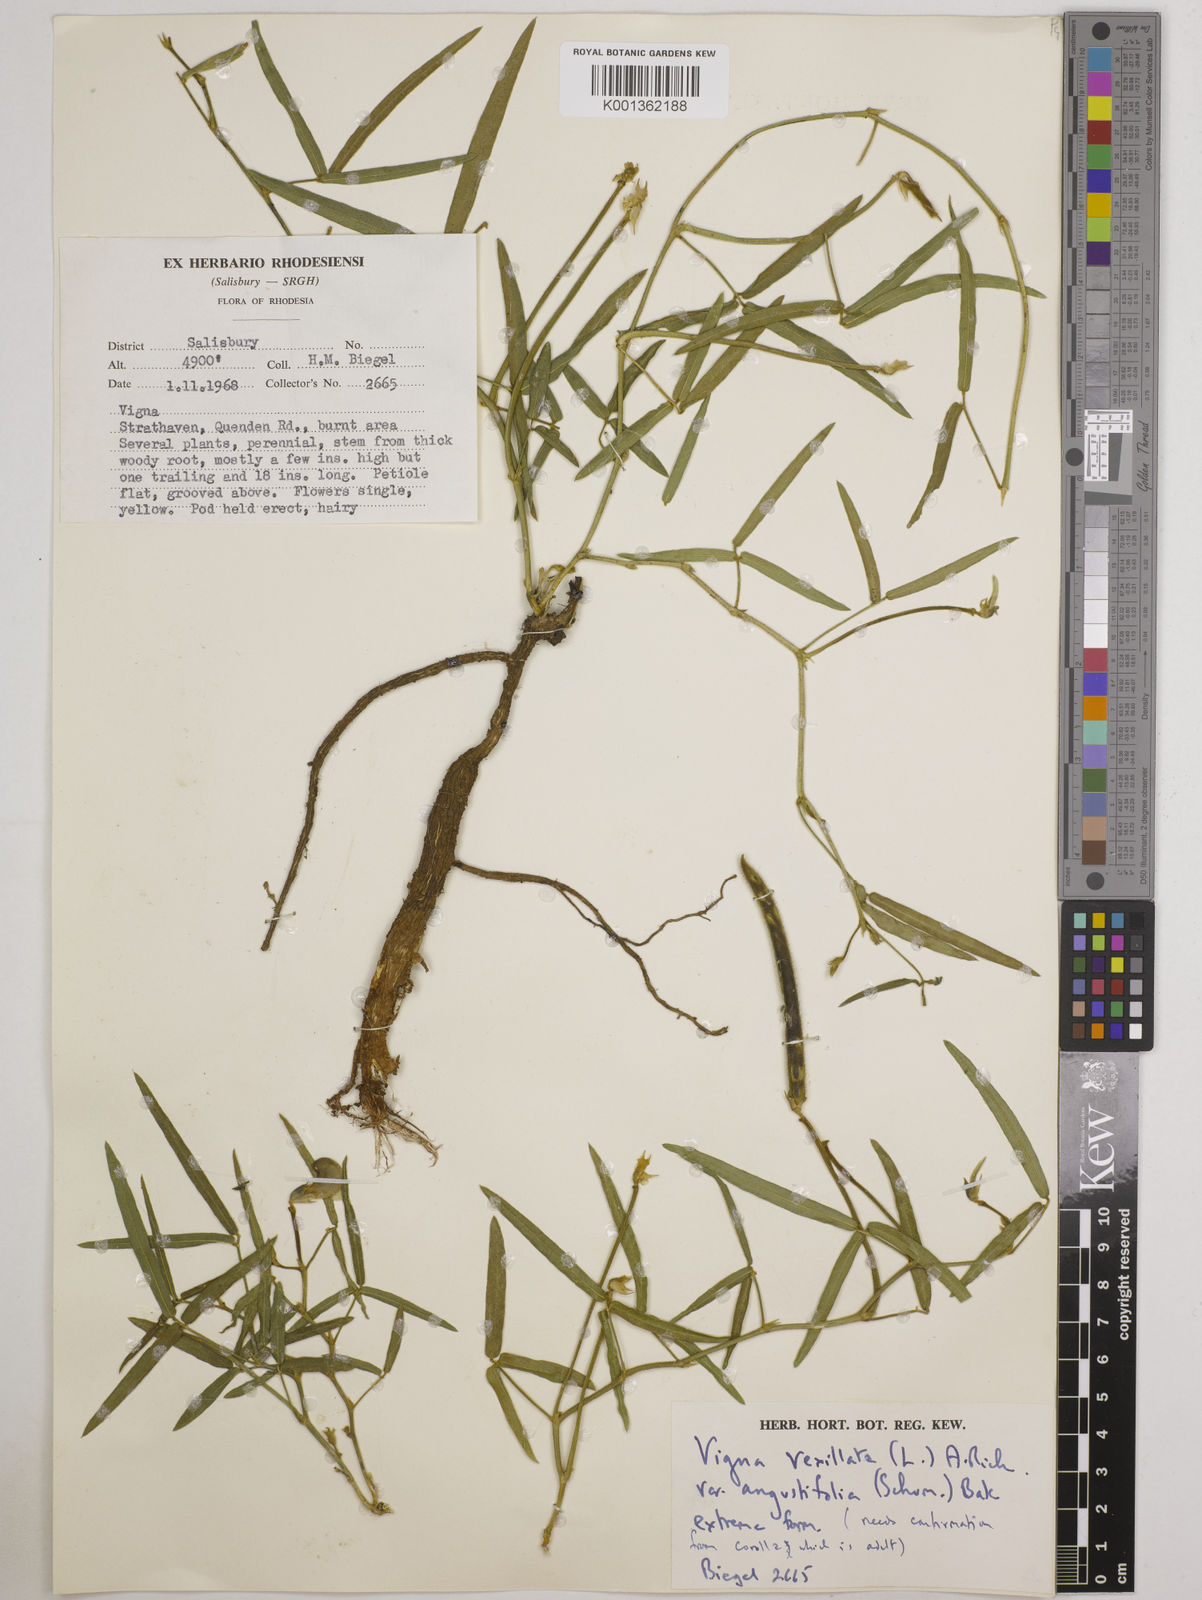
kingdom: Plantae
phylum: Tracheophyta
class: Magnoliopsida
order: Fabales
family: Fabaceae
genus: Vigna
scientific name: Vigna vexillata
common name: Zombi pea
